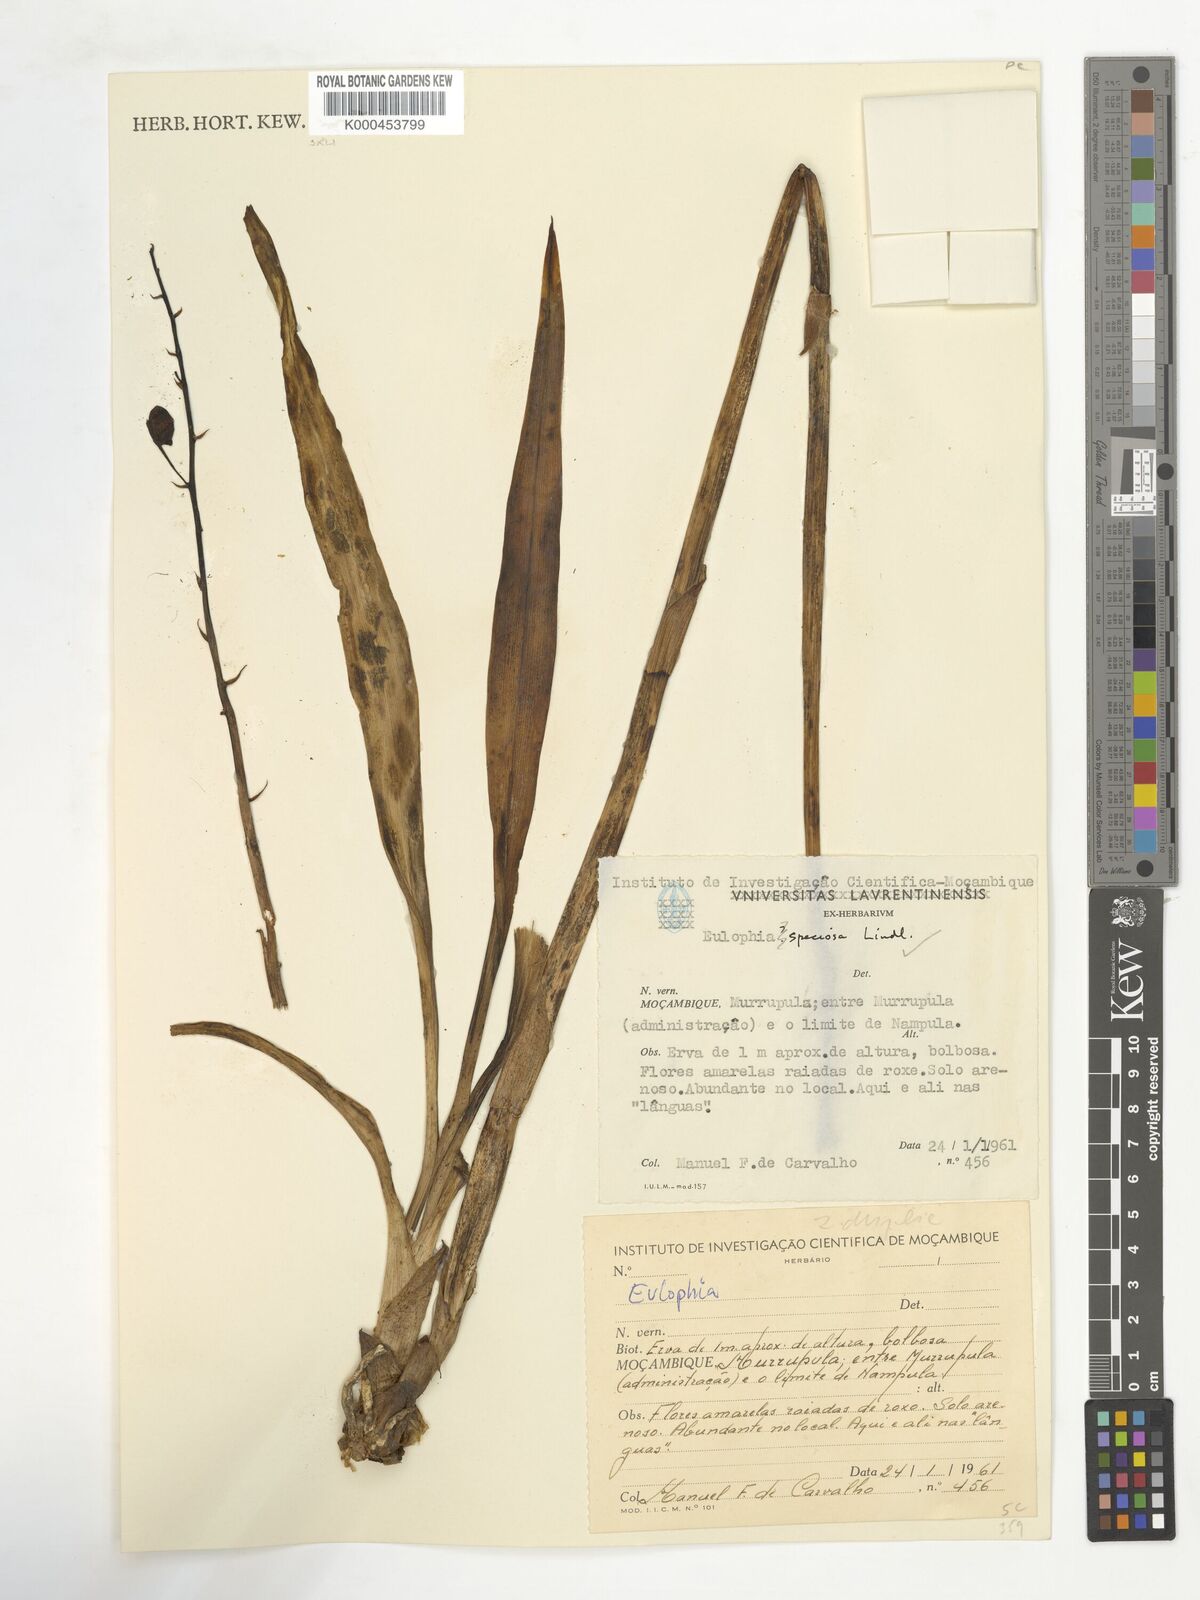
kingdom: Plantae
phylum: Tracheophyta
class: Liliopsida
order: Asparagales
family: Orchidaceae
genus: Eulophia
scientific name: Eulophia speciosa
